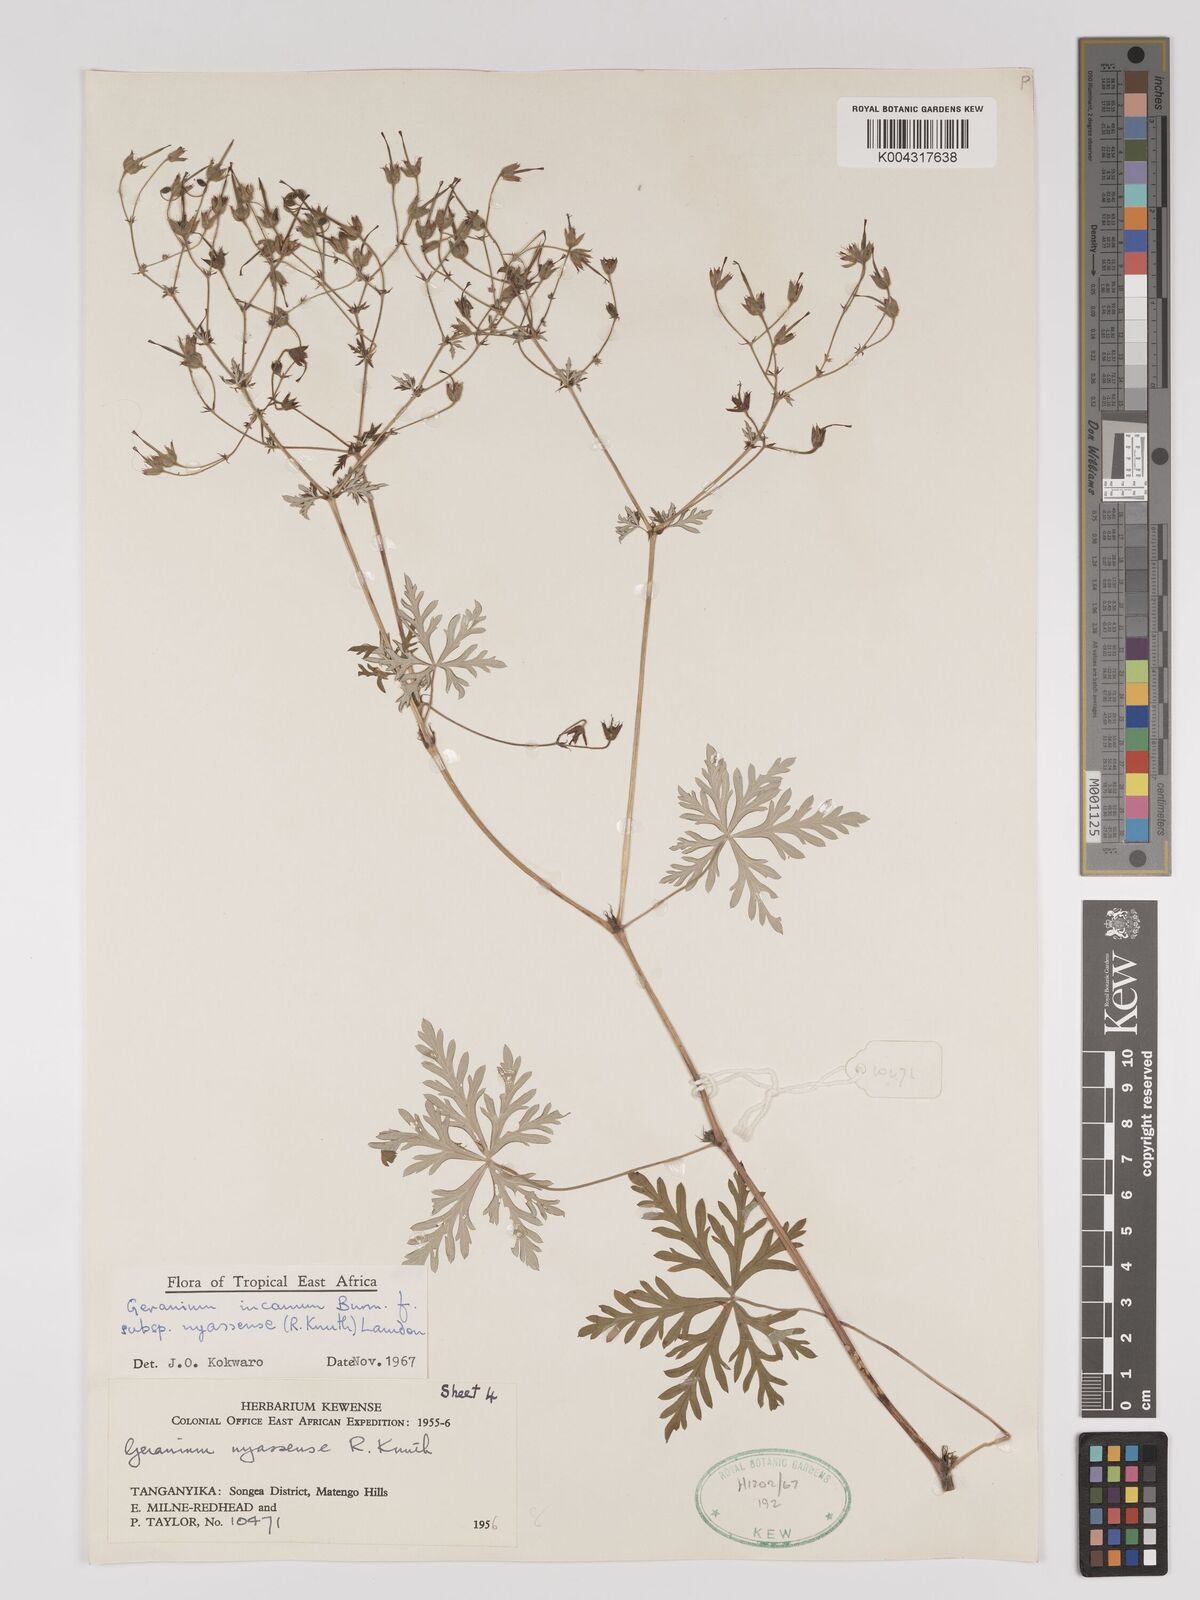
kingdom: Plantae
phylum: Tracheophyta
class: Magnoliopsida
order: Geraniales
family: Geraniaceae
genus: Geranium
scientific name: Geranium incanum
